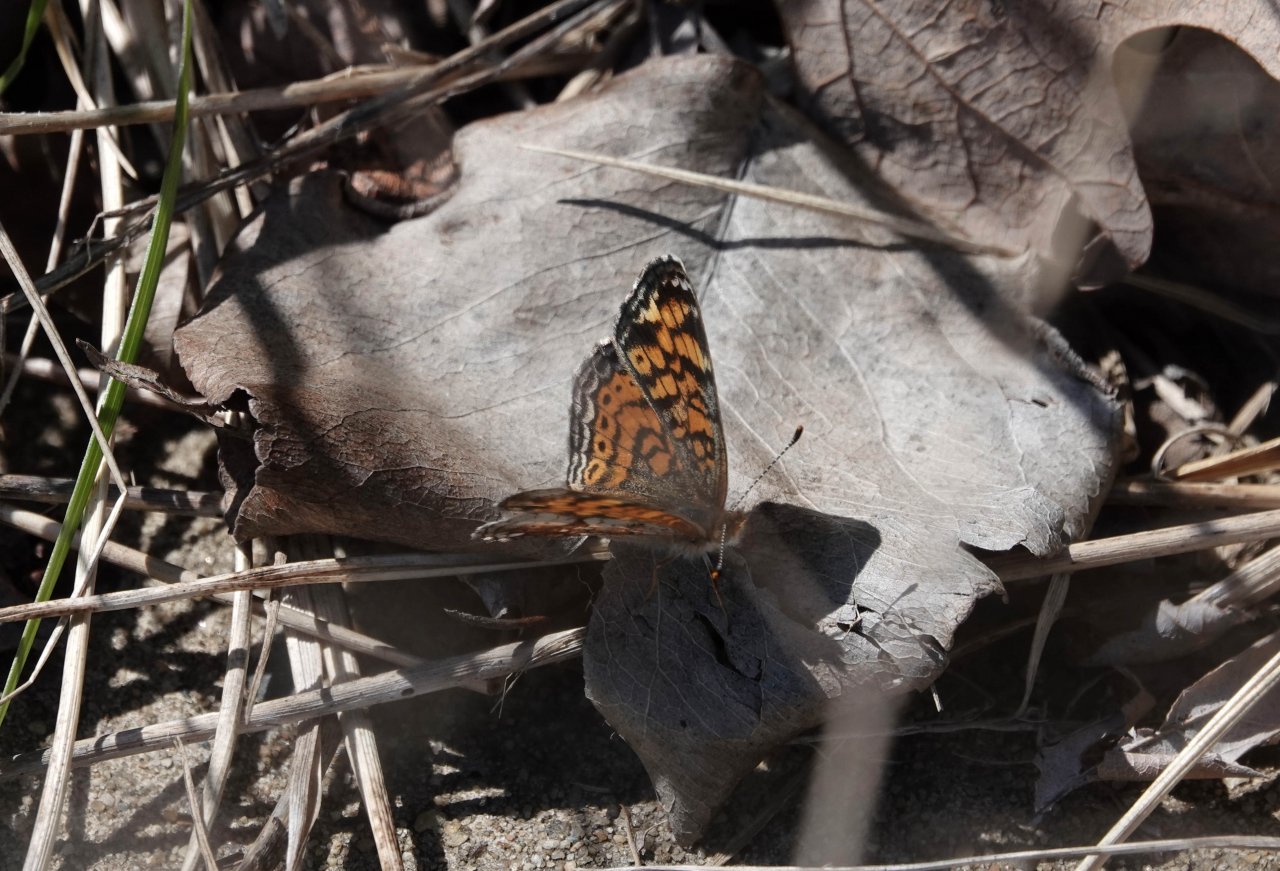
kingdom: Animalia
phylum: Arthropoda
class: Insecta
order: Lepidoptera
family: Nymphalidae
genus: Phyciodes
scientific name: Phyciodes tharos
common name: Pearl Crescent
